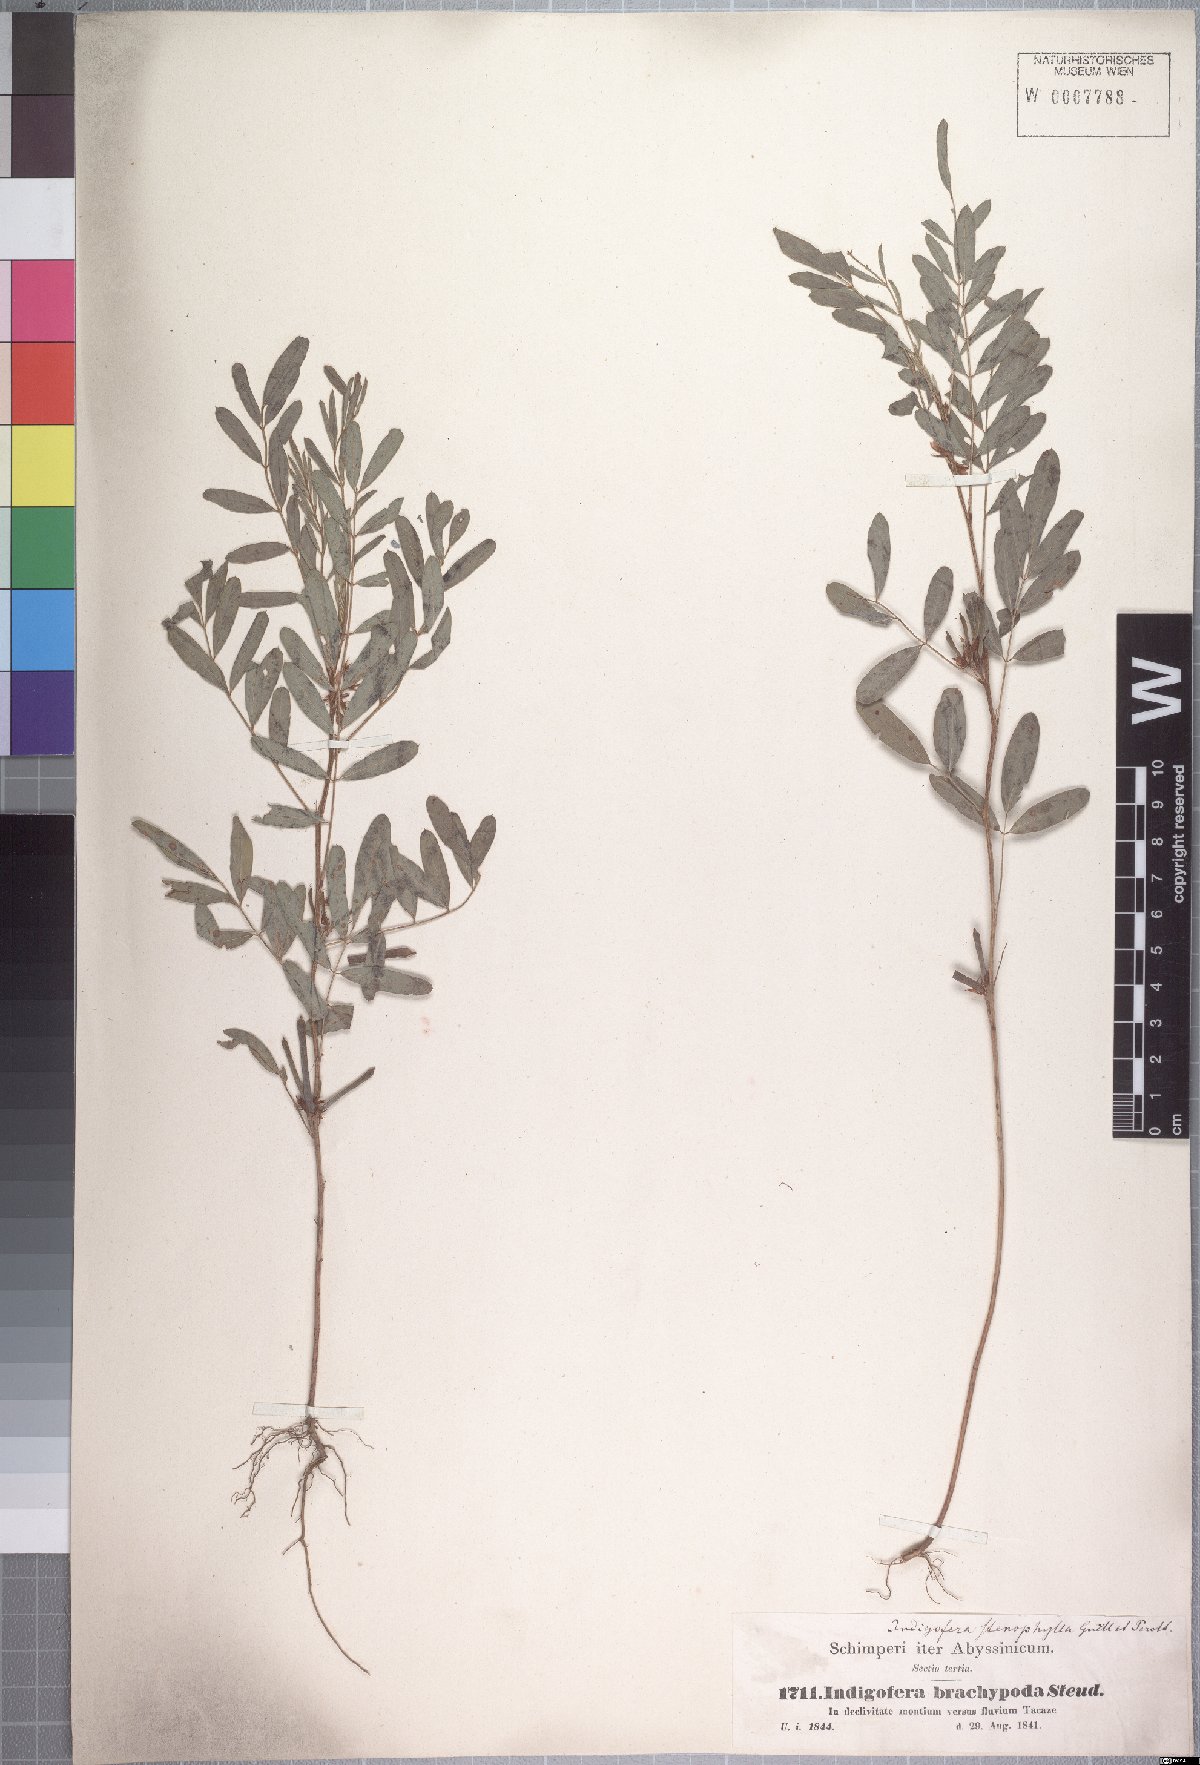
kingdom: Plantae
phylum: Tracheophyta
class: Magnoliopsida
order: Fabales
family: Fabaceae
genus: Indigofera
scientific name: Indigofera prieureana
